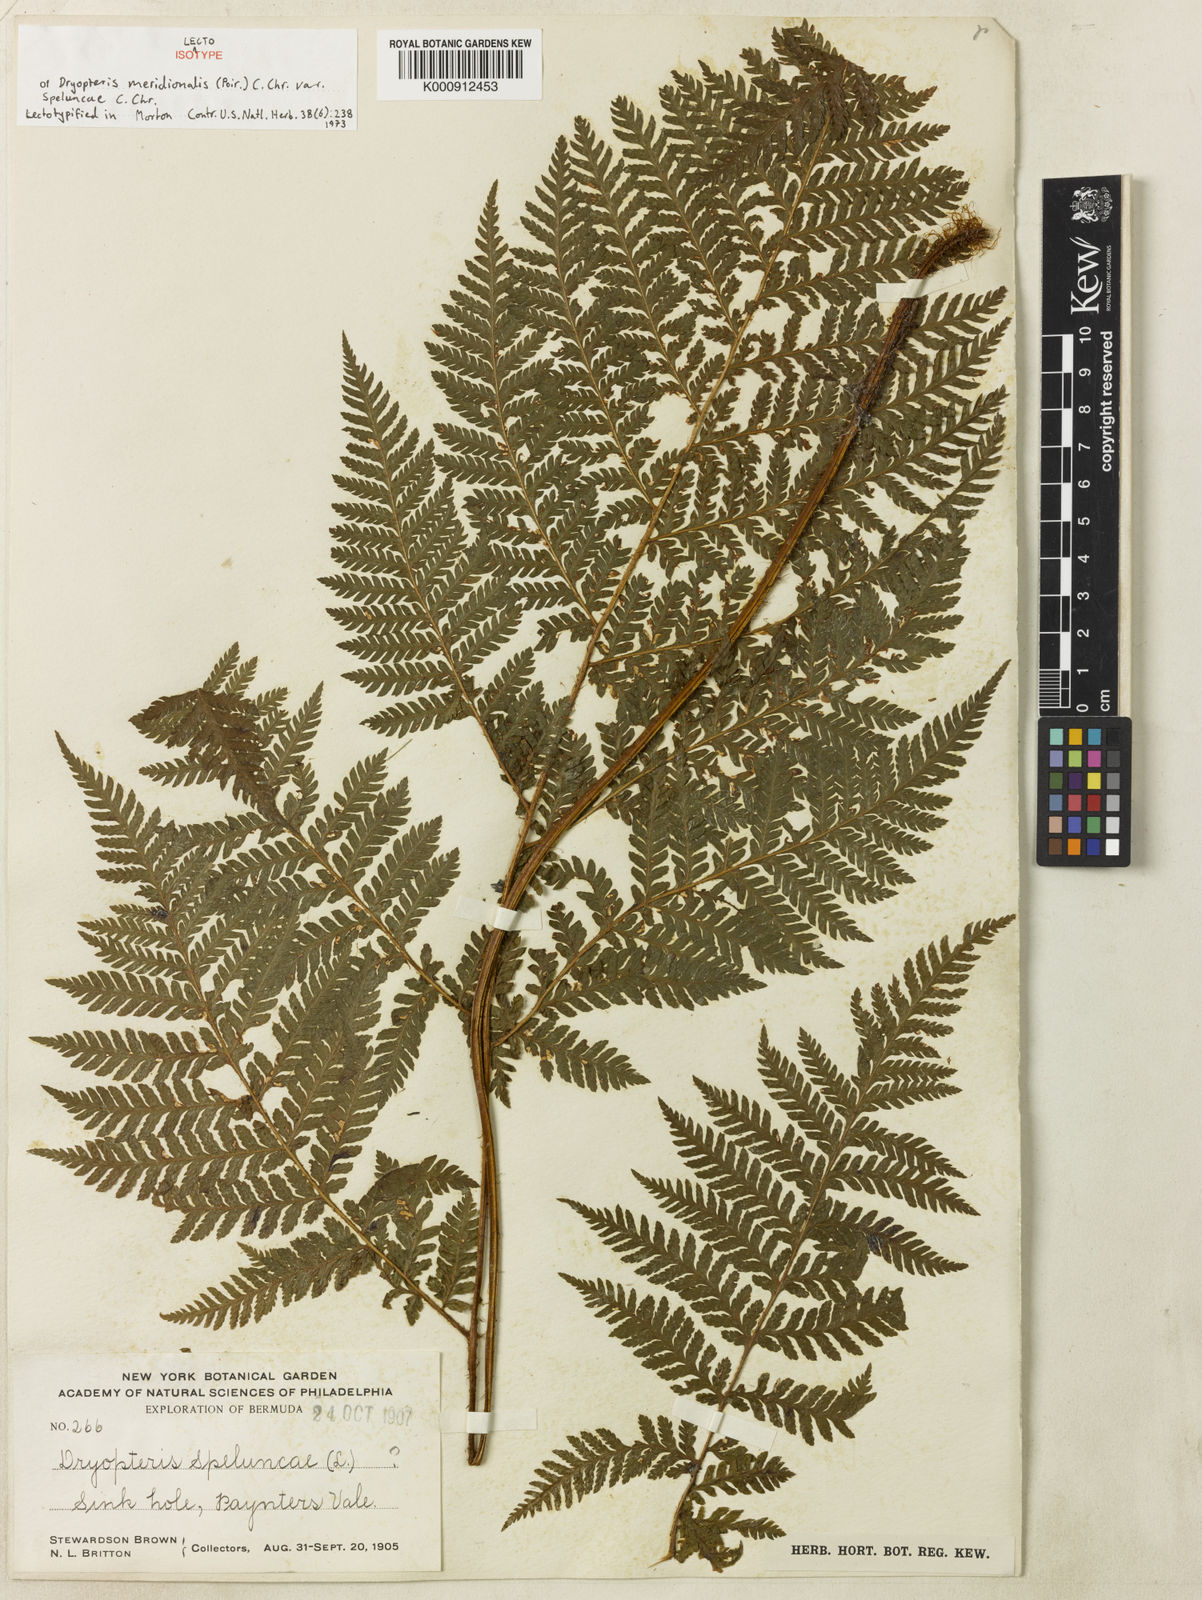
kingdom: Plantae
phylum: Tracheophyta
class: Polypodiopsida
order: Polypodiales
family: Dennstaedtiaceae
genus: Microlepia
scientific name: Microlepia speluncae
